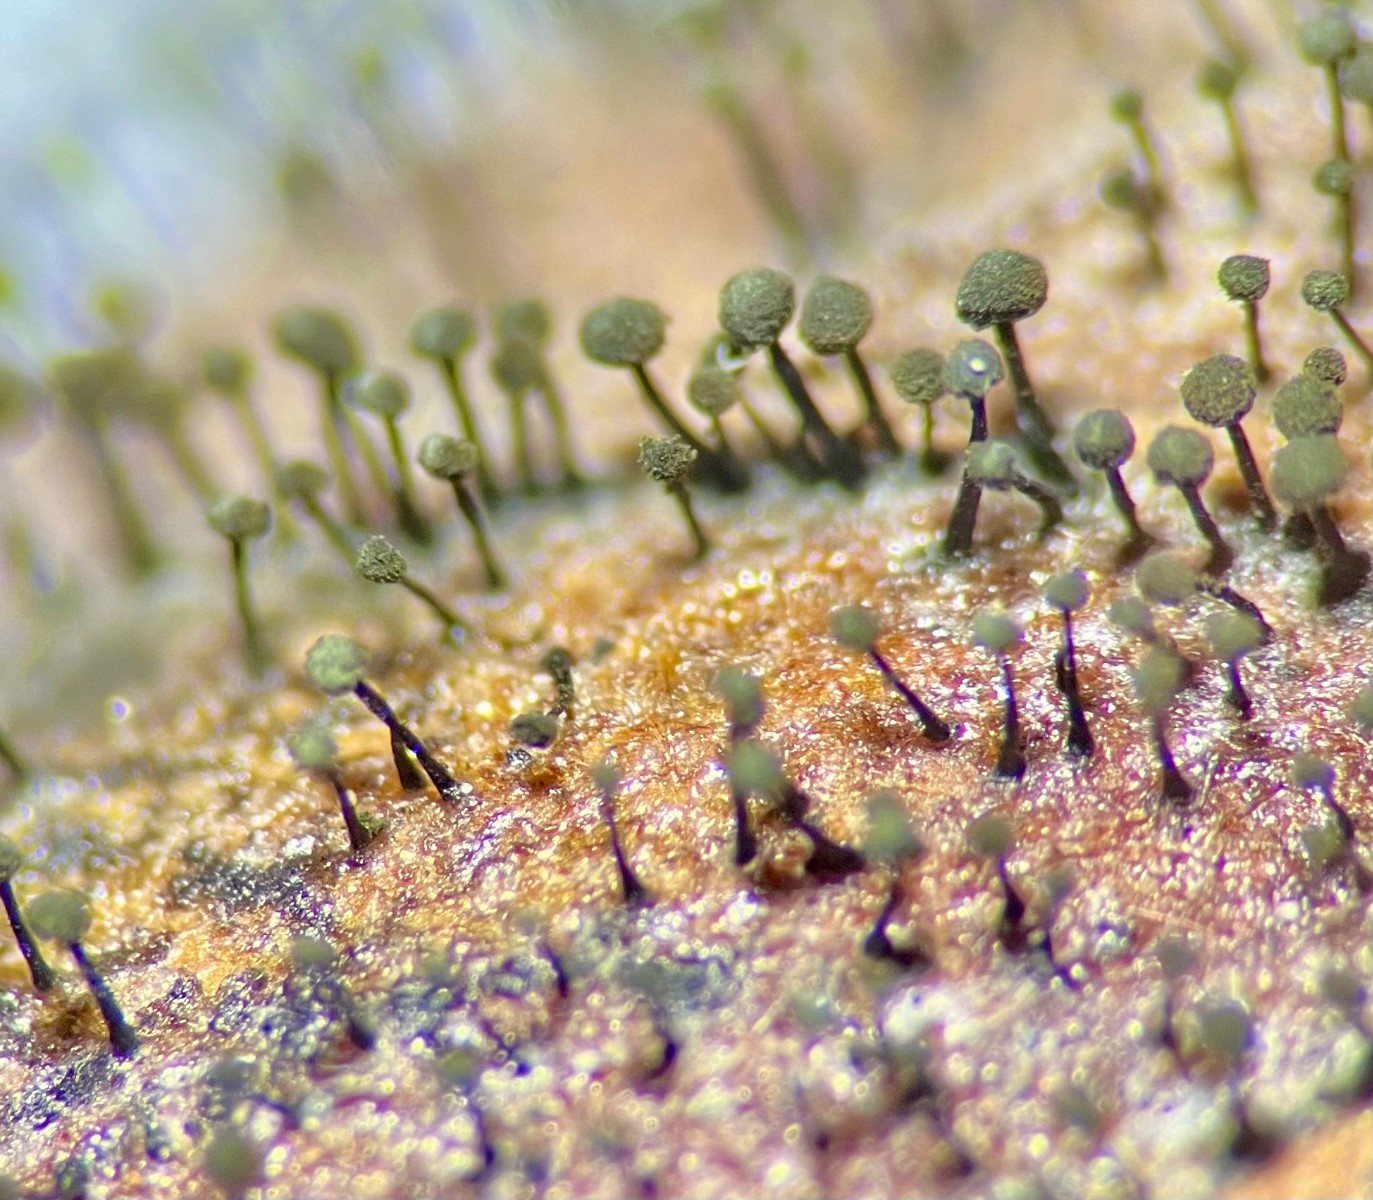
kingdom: Fungi
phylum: Ascomycota
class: Dothideomycetes
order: Pleosporales
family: Melanommataceae
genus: Seifertia
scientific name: Seifertia azaleae
